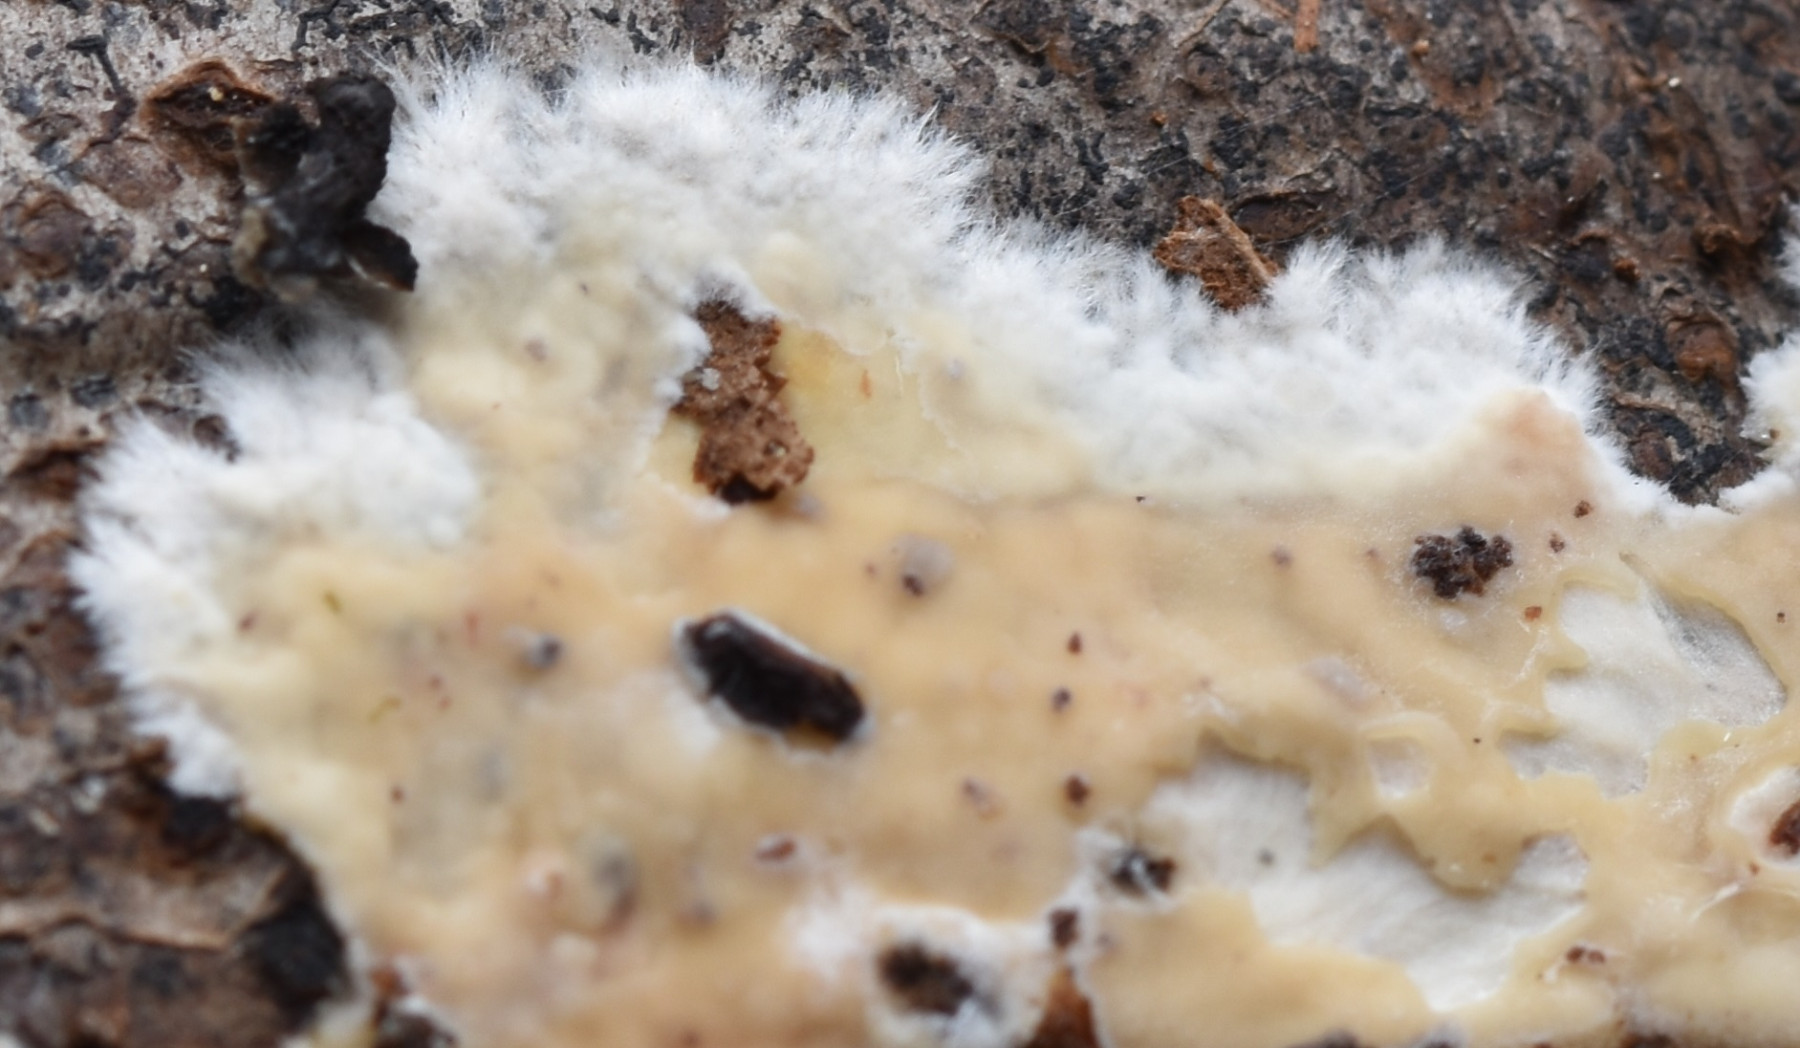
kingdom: Fungi
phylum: Basidiomycota
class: Agaricomycetes
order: Polyporales
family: Phanerochaetaceae
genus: Phanerochaete
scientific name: Phanerochaete velutina
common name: dunet randtråd
